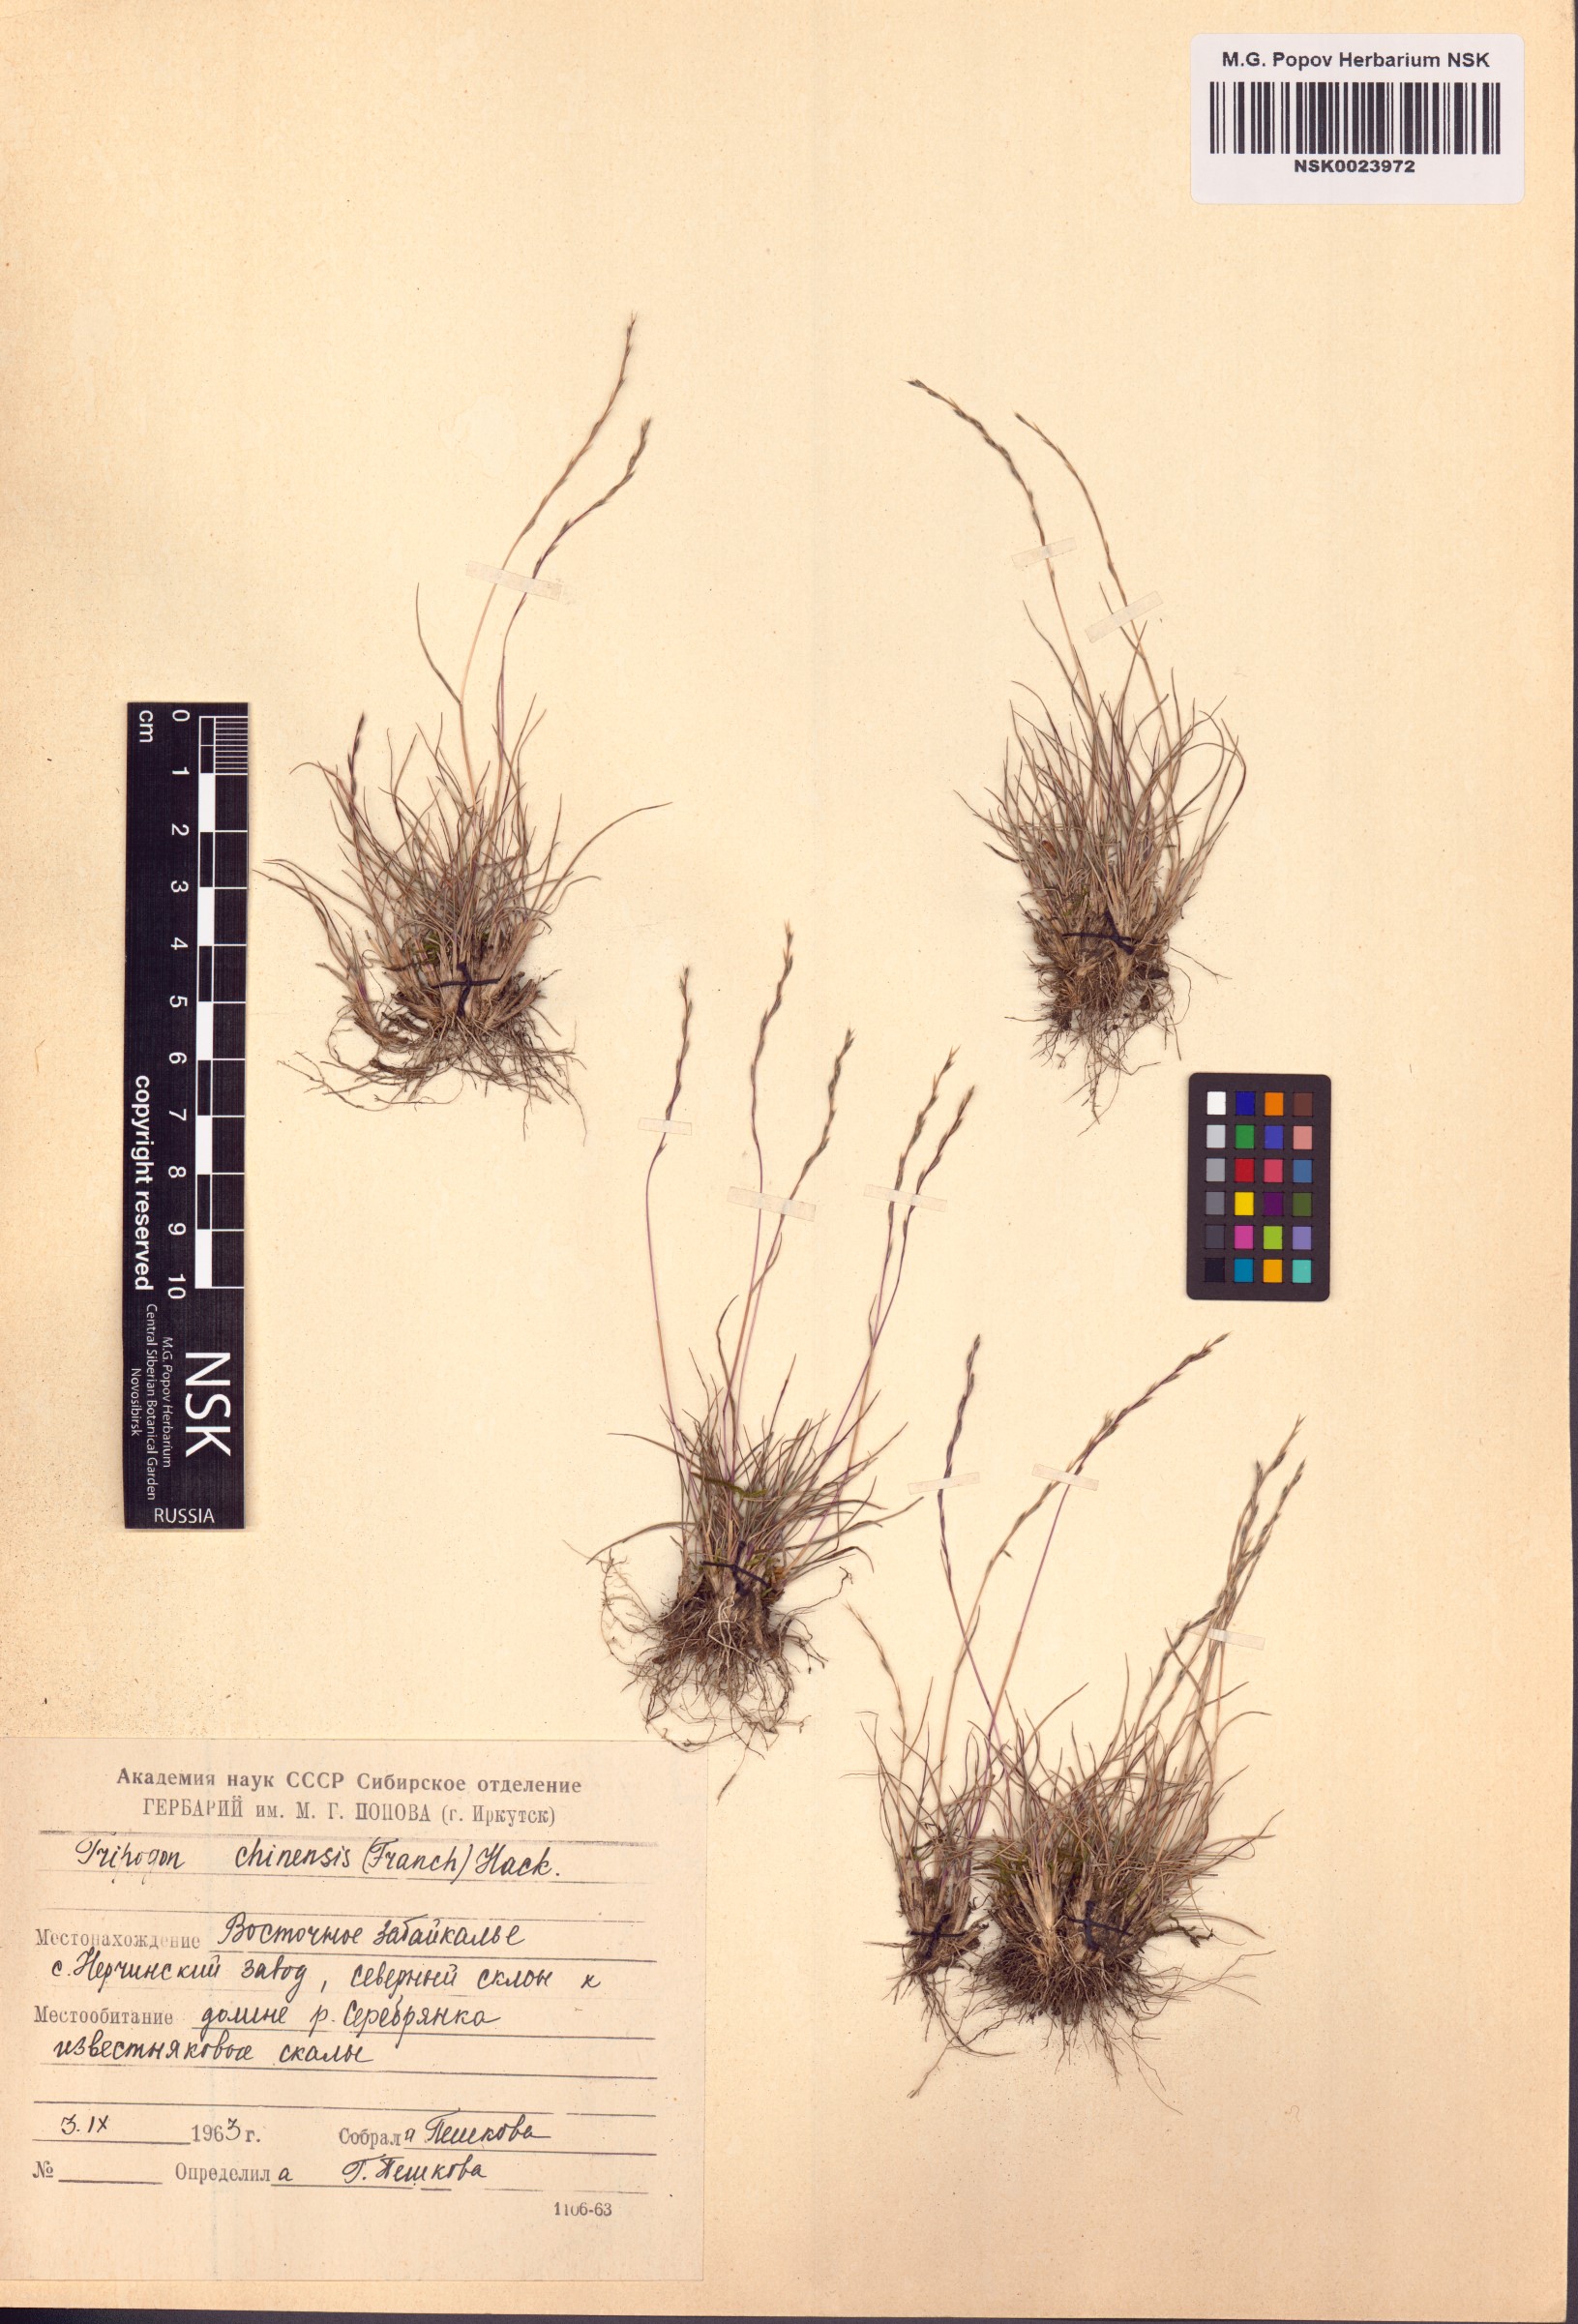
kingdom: Plantae
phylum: Tracheophyta
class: Liliopsida
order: Poales
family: Poaceae
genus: Tripogon
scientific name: Tripogon chinensis
